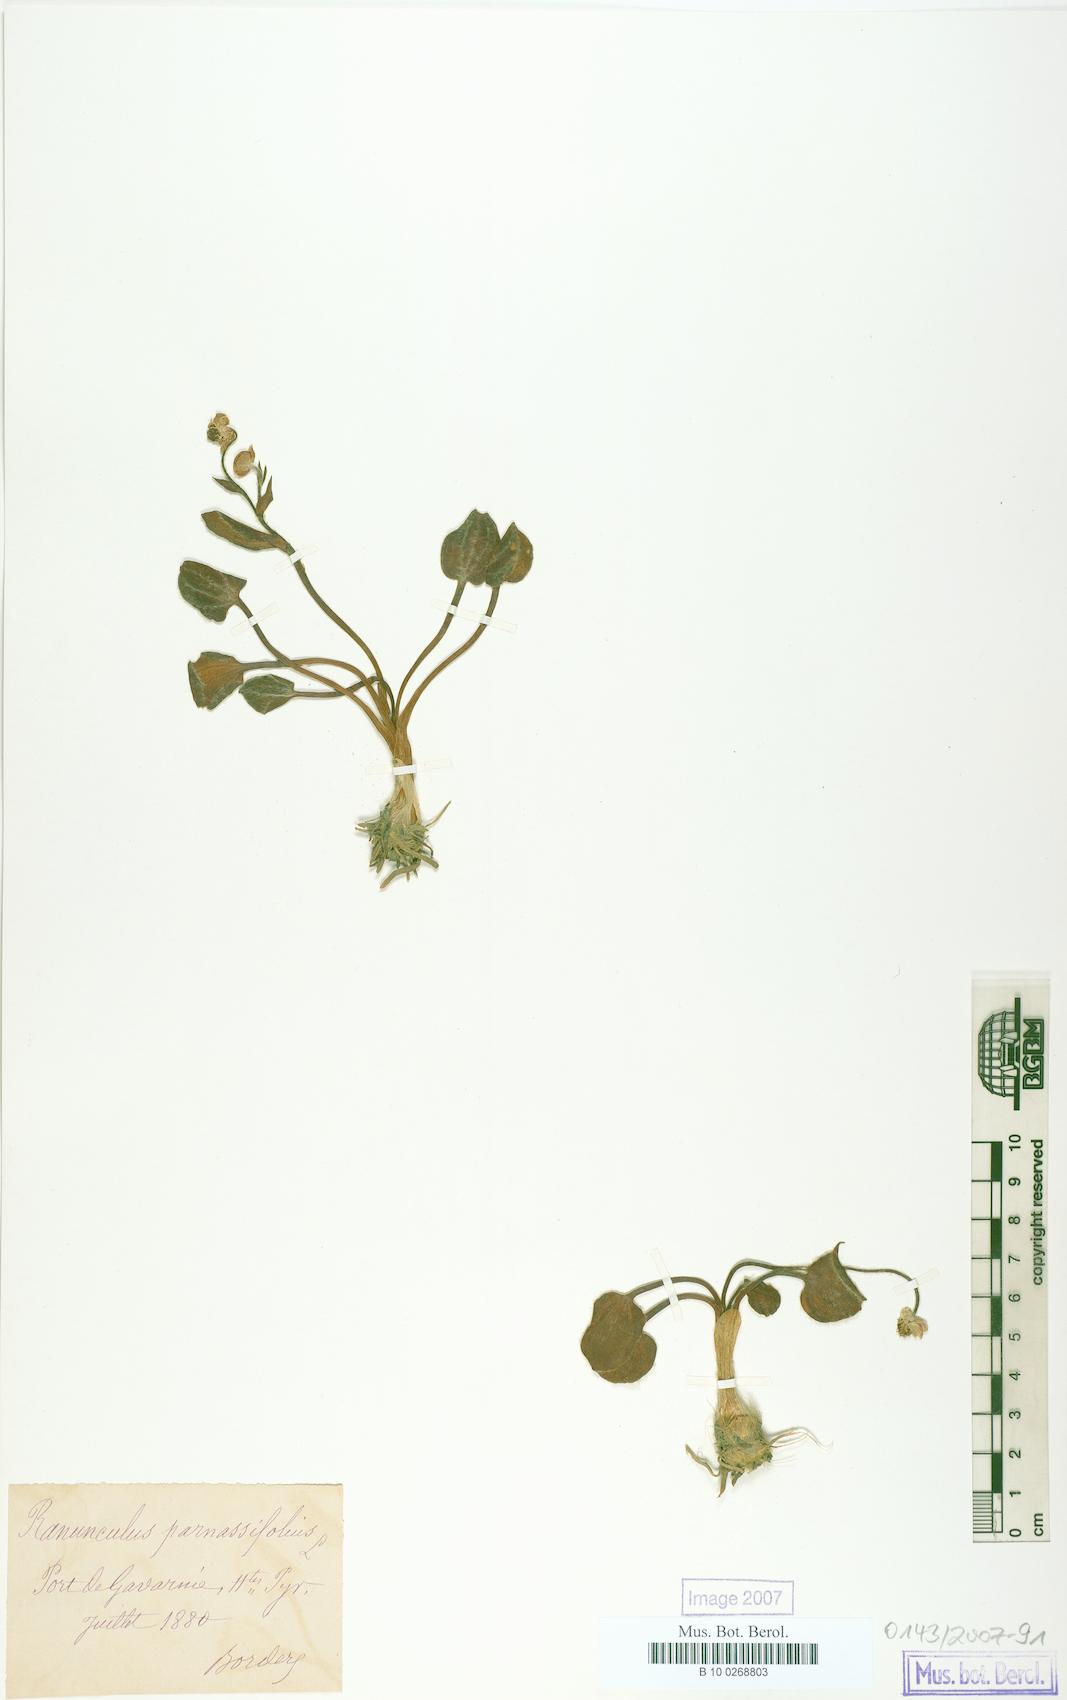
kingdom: Plantae
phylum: Tracheophyta
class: Magnoliopsida
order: Ranunculales
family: Ranunculaceae
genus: Ranunculus
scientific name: Ranunculus parnassiifolius
